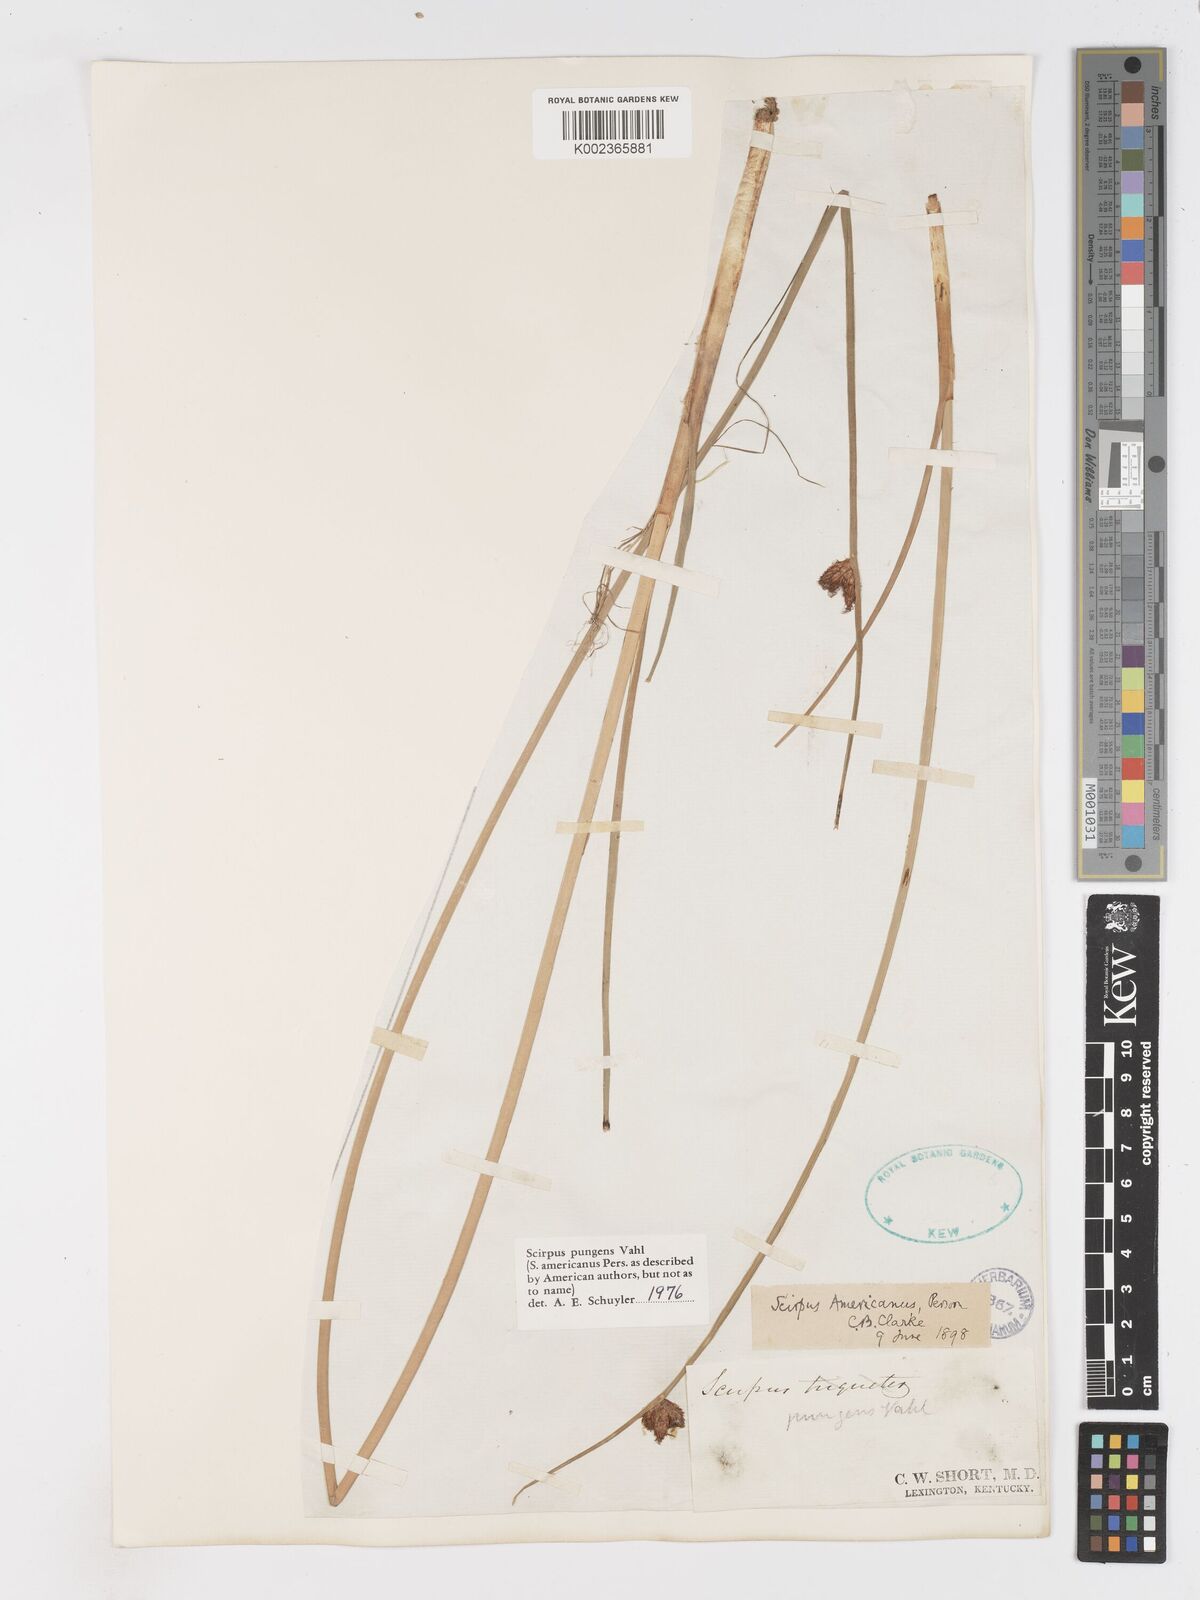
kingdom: Plantae
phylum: Tracheophyta
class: Liliopsida
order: Poales
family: Cyperaceae
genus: Schoenoplectus
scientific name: Schoenoplectus pungens
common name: Sharp club-rush
